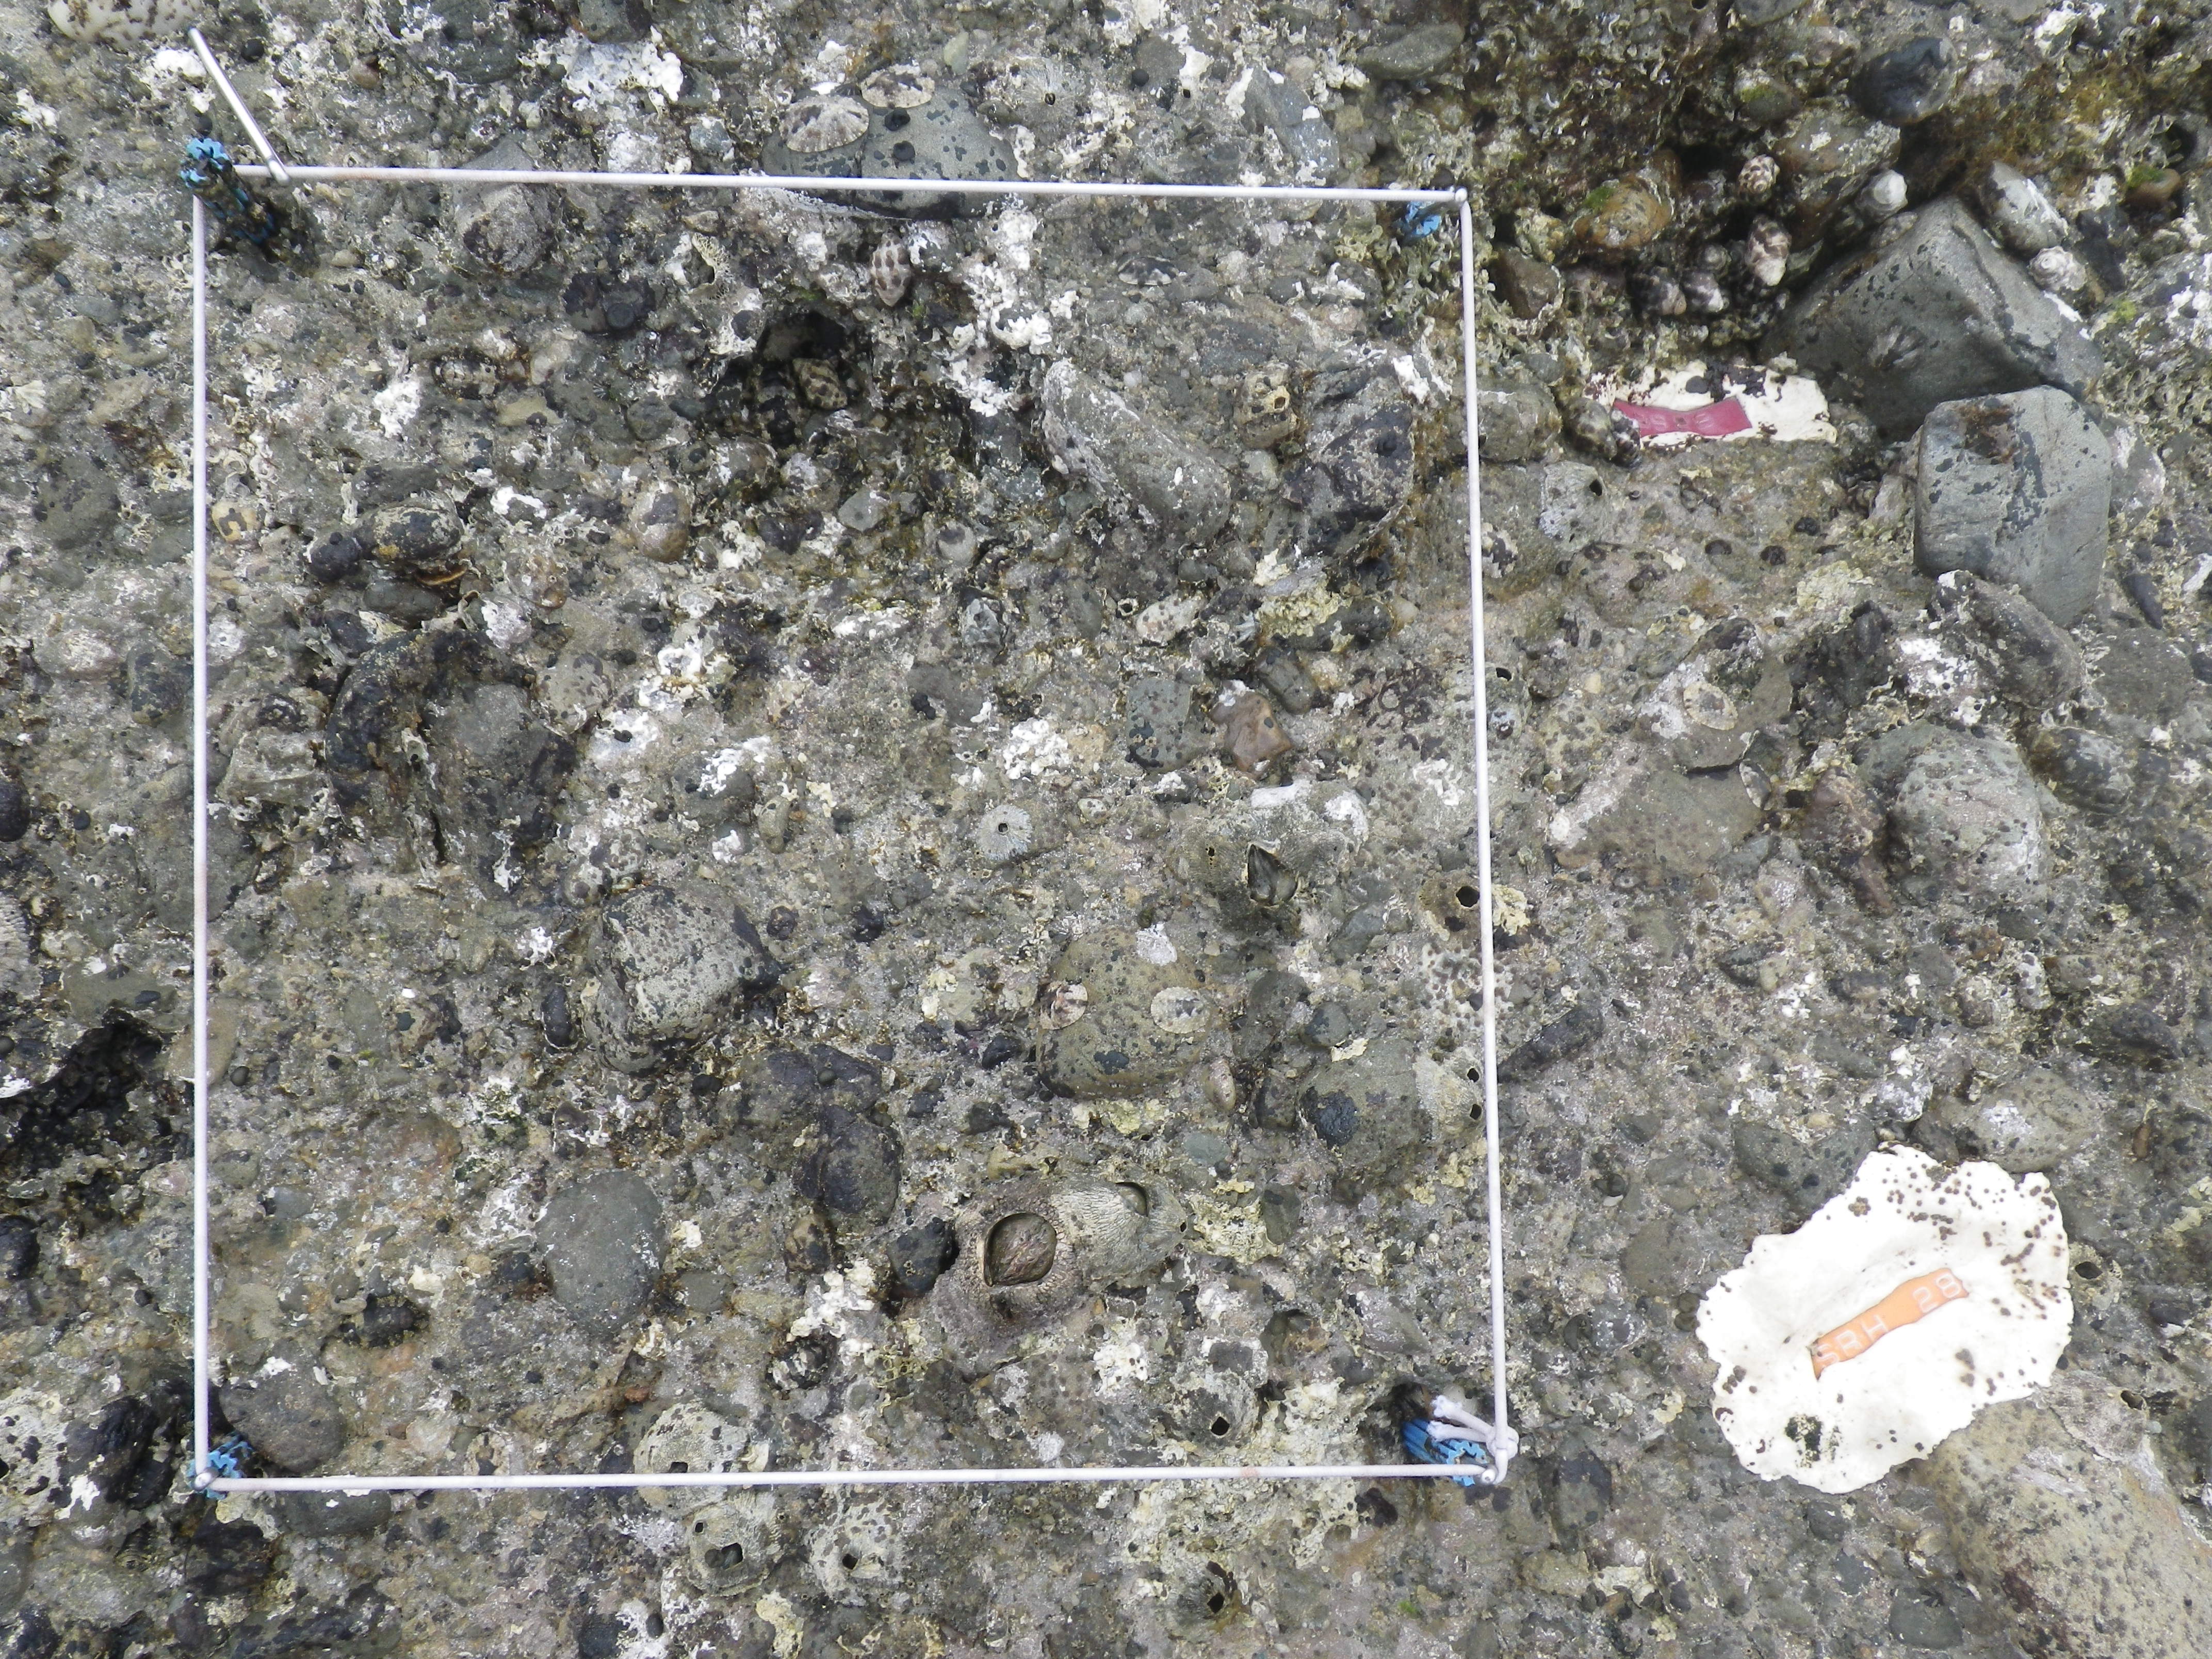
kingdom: Animalia
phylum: Arthropoda
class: Maxillopoda
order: Sessilia
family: Chthamalidae
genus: Chthamalus
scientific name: Chthamalus challengeri
